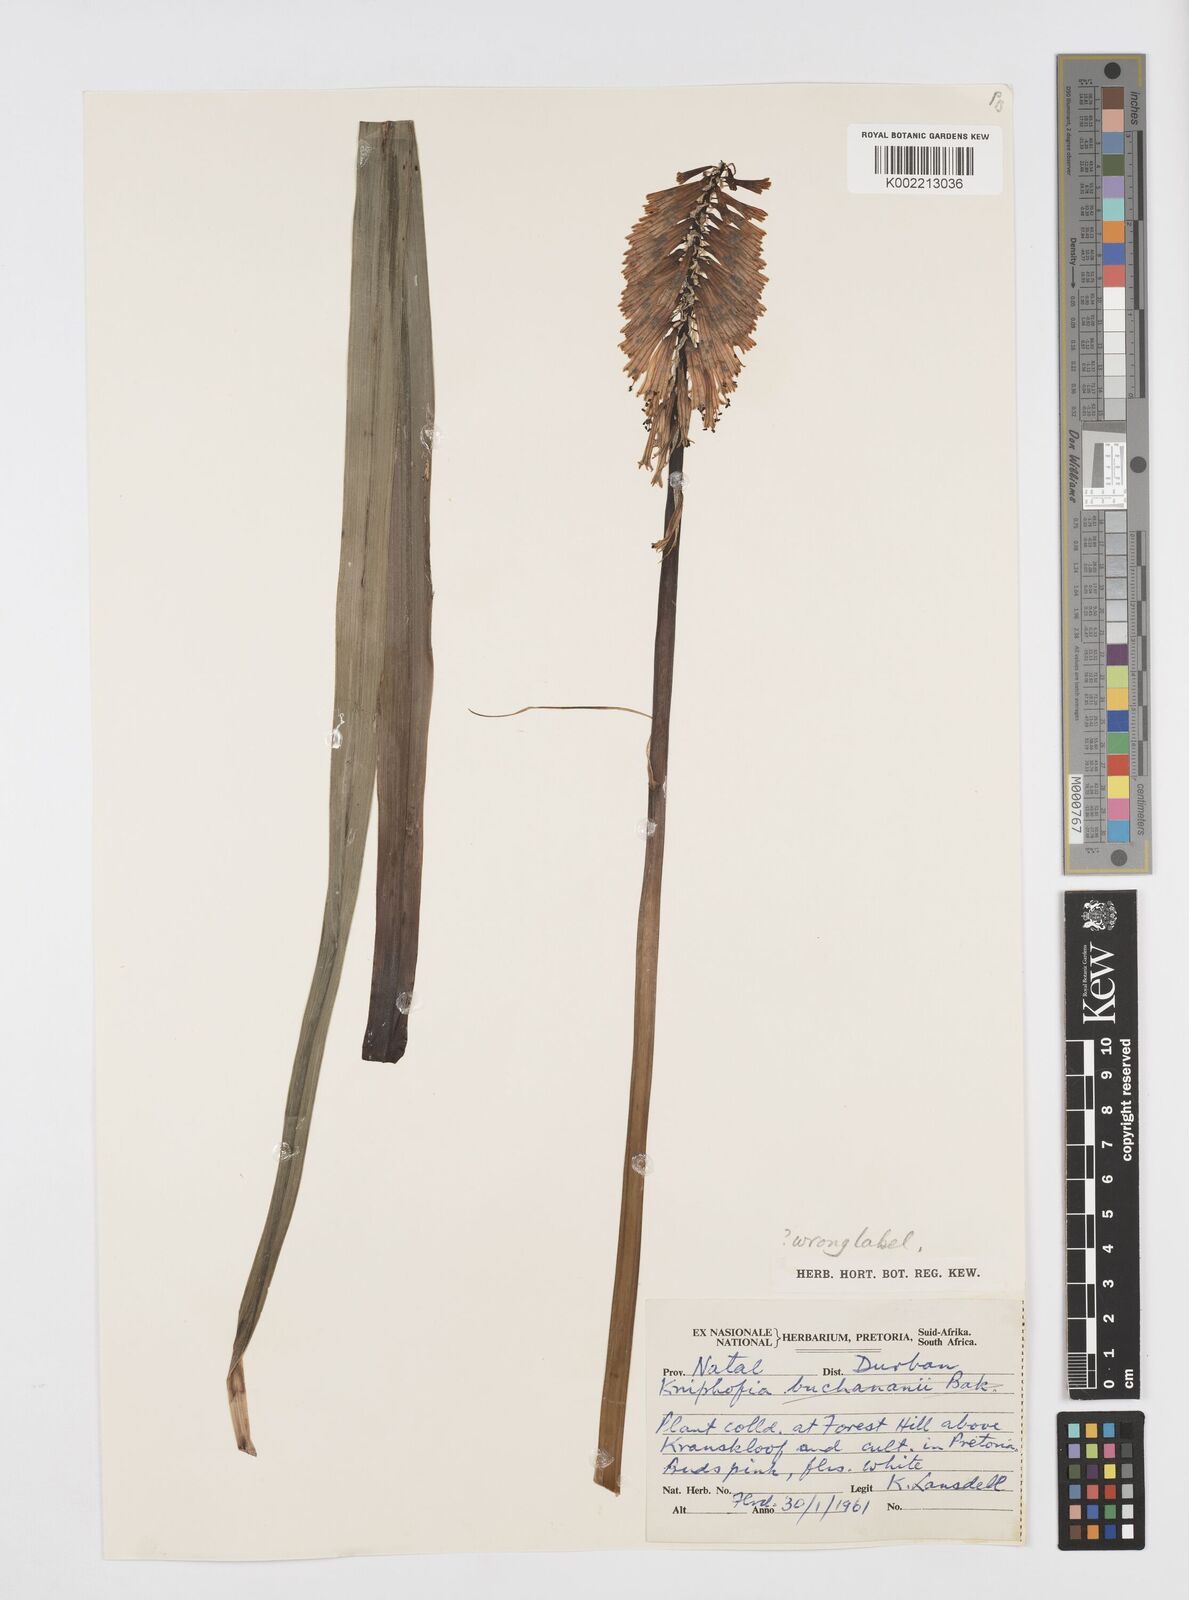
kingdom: Plantae
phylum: Tracheophyta
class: Liliopsida
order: Asparagales
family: Asphodelaceae
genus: Kniphofia
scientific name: Kniphofia
